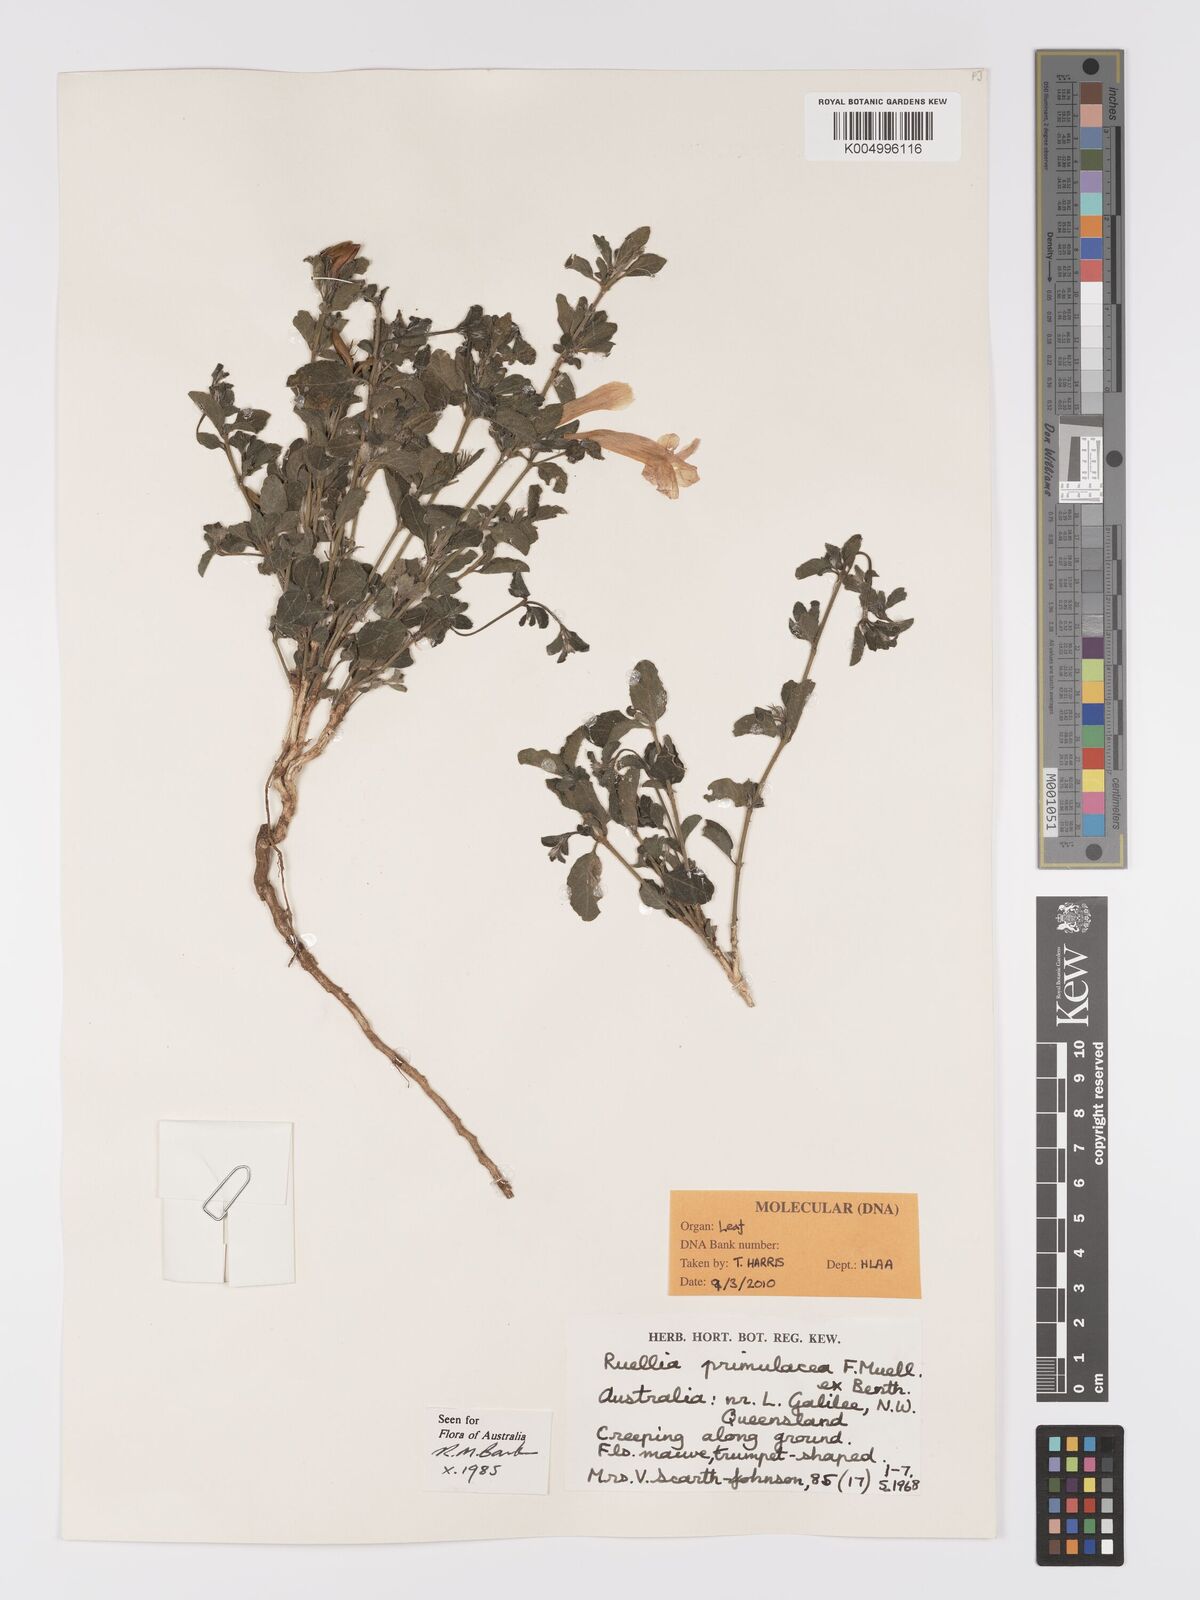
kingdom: Plantae
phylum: Tracheophyta
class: Magnoliopsida
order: Lamiales
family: Acanthaceae
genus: Ruellia
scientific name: Ruellia primulacea
